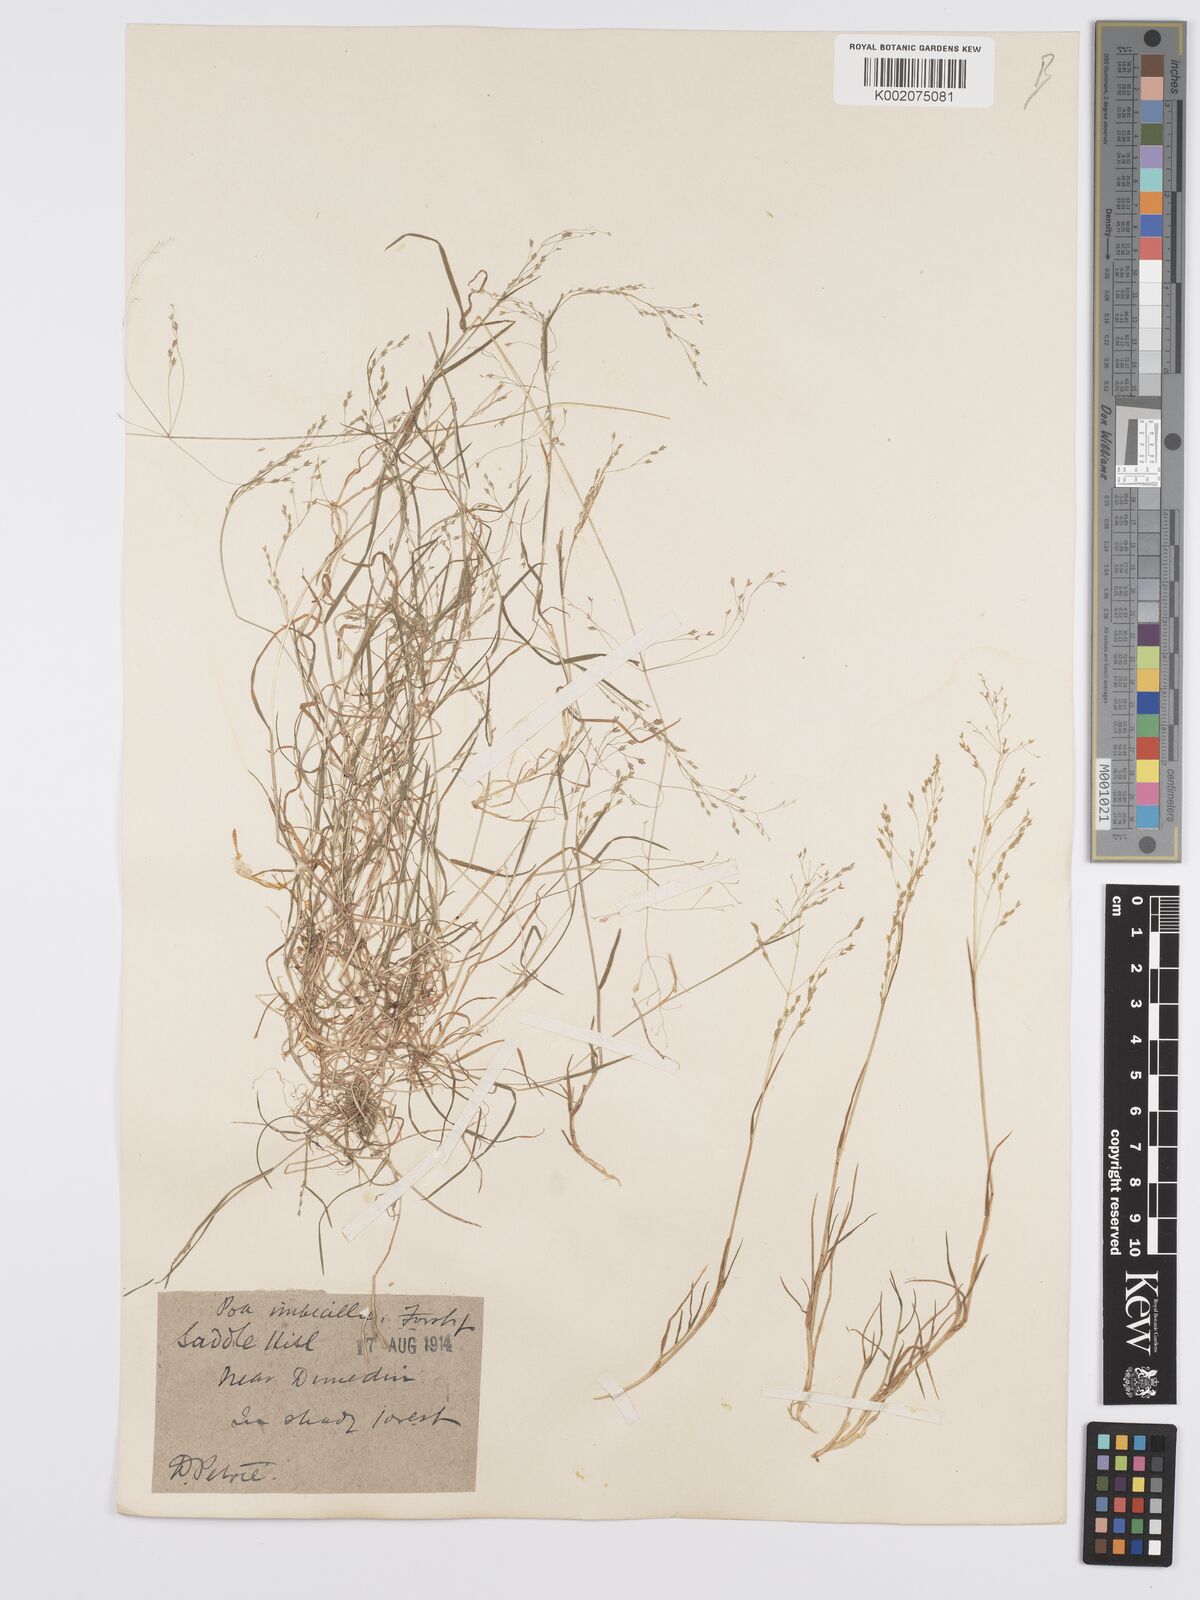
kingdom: Plantae
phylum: Tracheophyta
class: Liliopsida
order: Poales
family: Poaceae
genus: Poa
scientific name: Poa breviglumis
